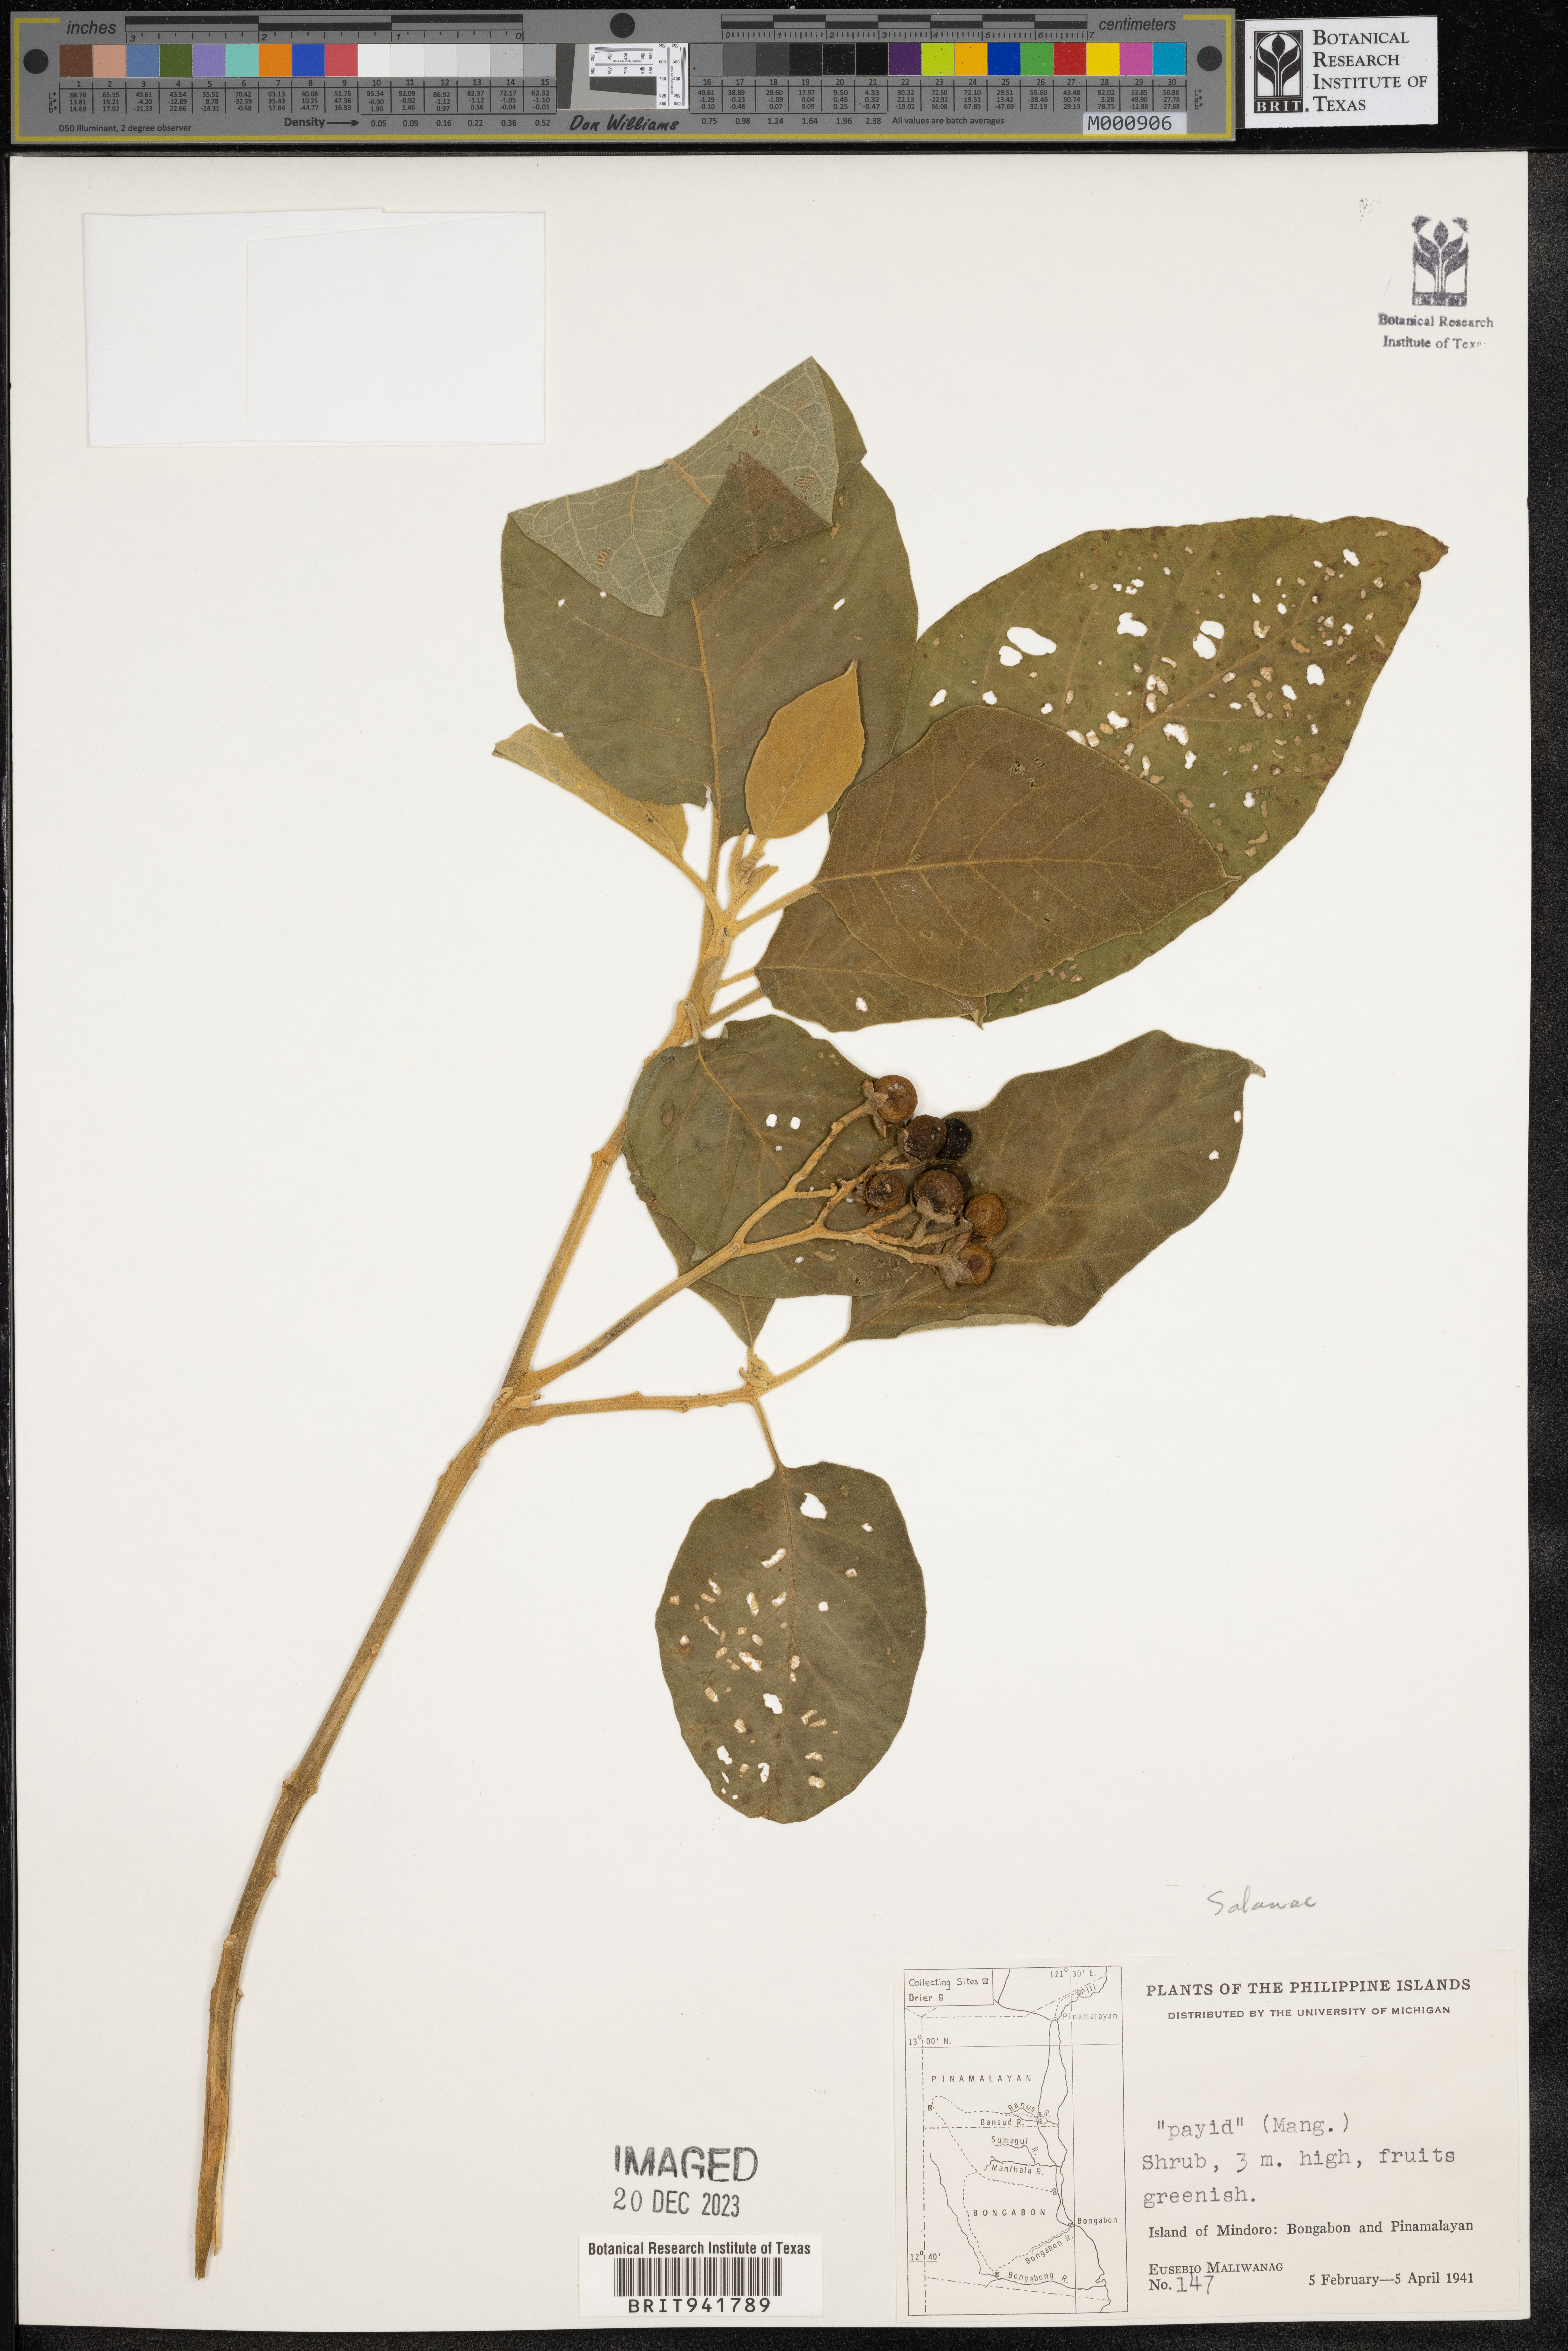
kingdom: Plantae
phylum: Tracheophyta
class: Magnoliopsida
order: Solanales
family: Solanaceae
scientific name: Solanaceae
